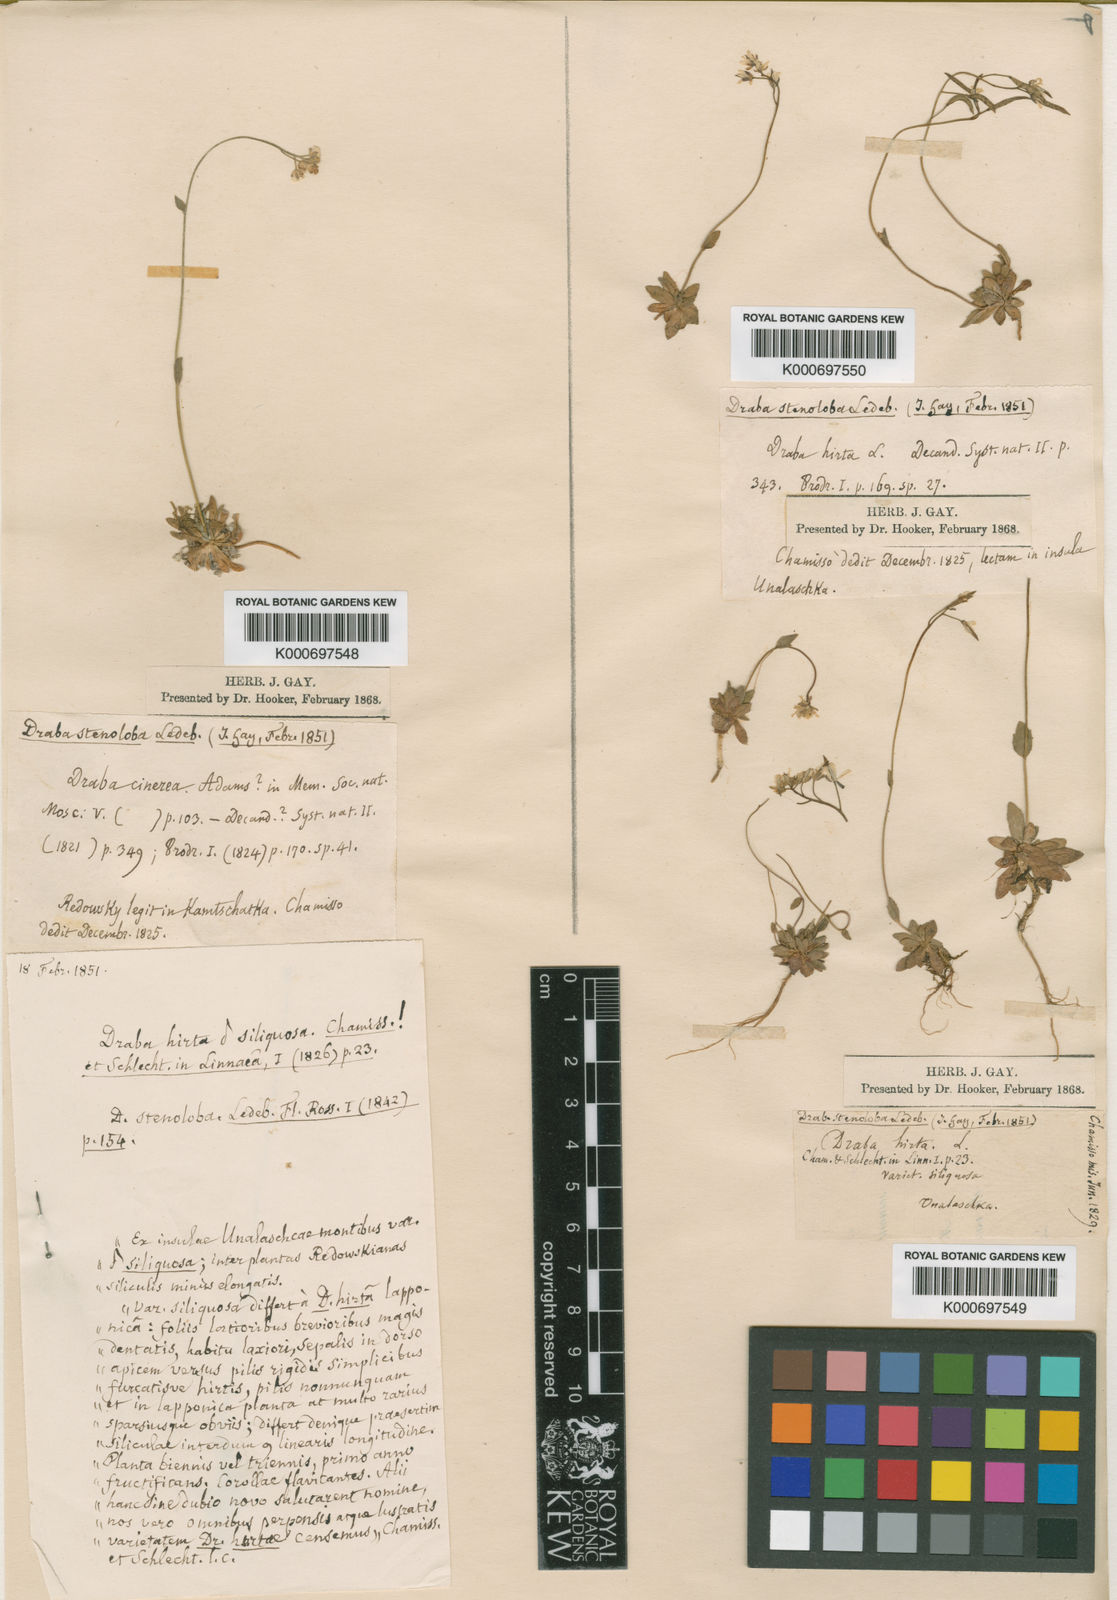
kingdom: Plantae
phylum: Tracheophyta
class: Magnoliopsida
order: Brassicales
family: Brassicaceae
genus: Draba
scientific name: Draba stenoloba
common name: Alaska draba
